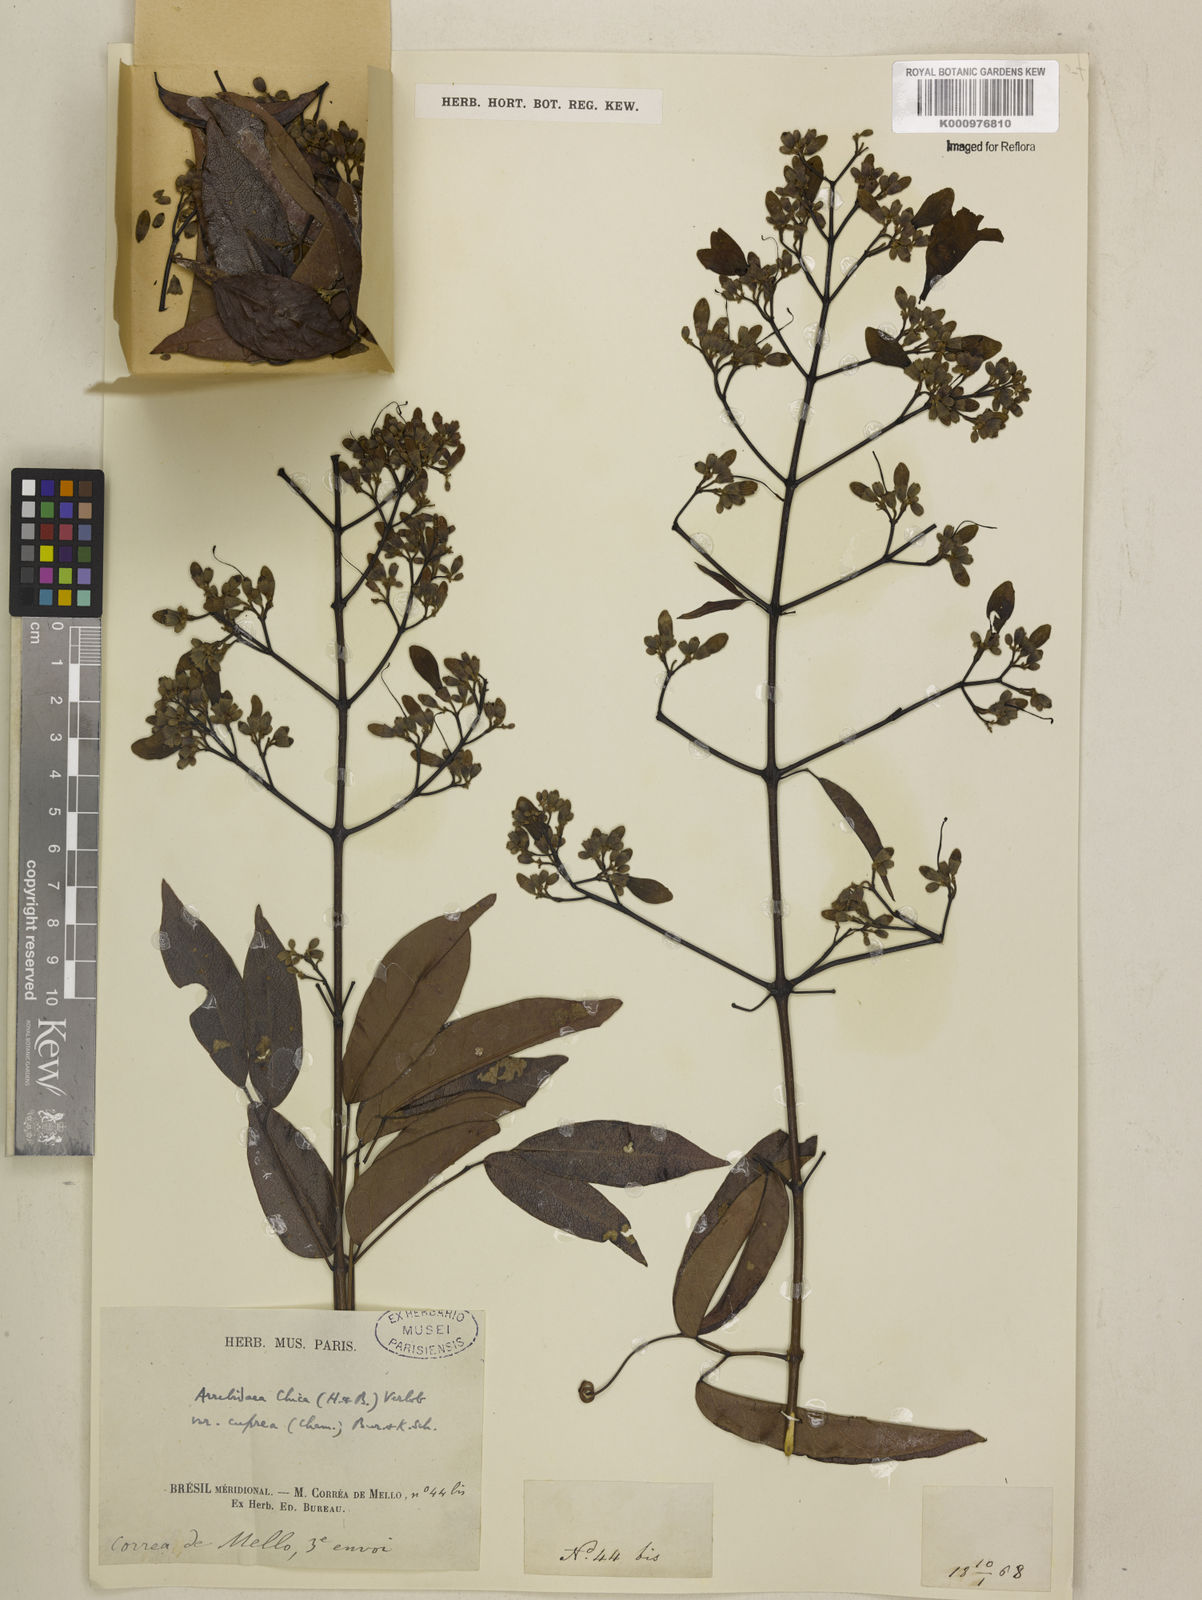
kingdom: Plantae
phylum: Tracheophyta
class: Magnoliopsida
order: Lamiales
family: Bignoniaceae
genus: Fridericia
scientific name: Fridericia chica
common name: Cricketvine
